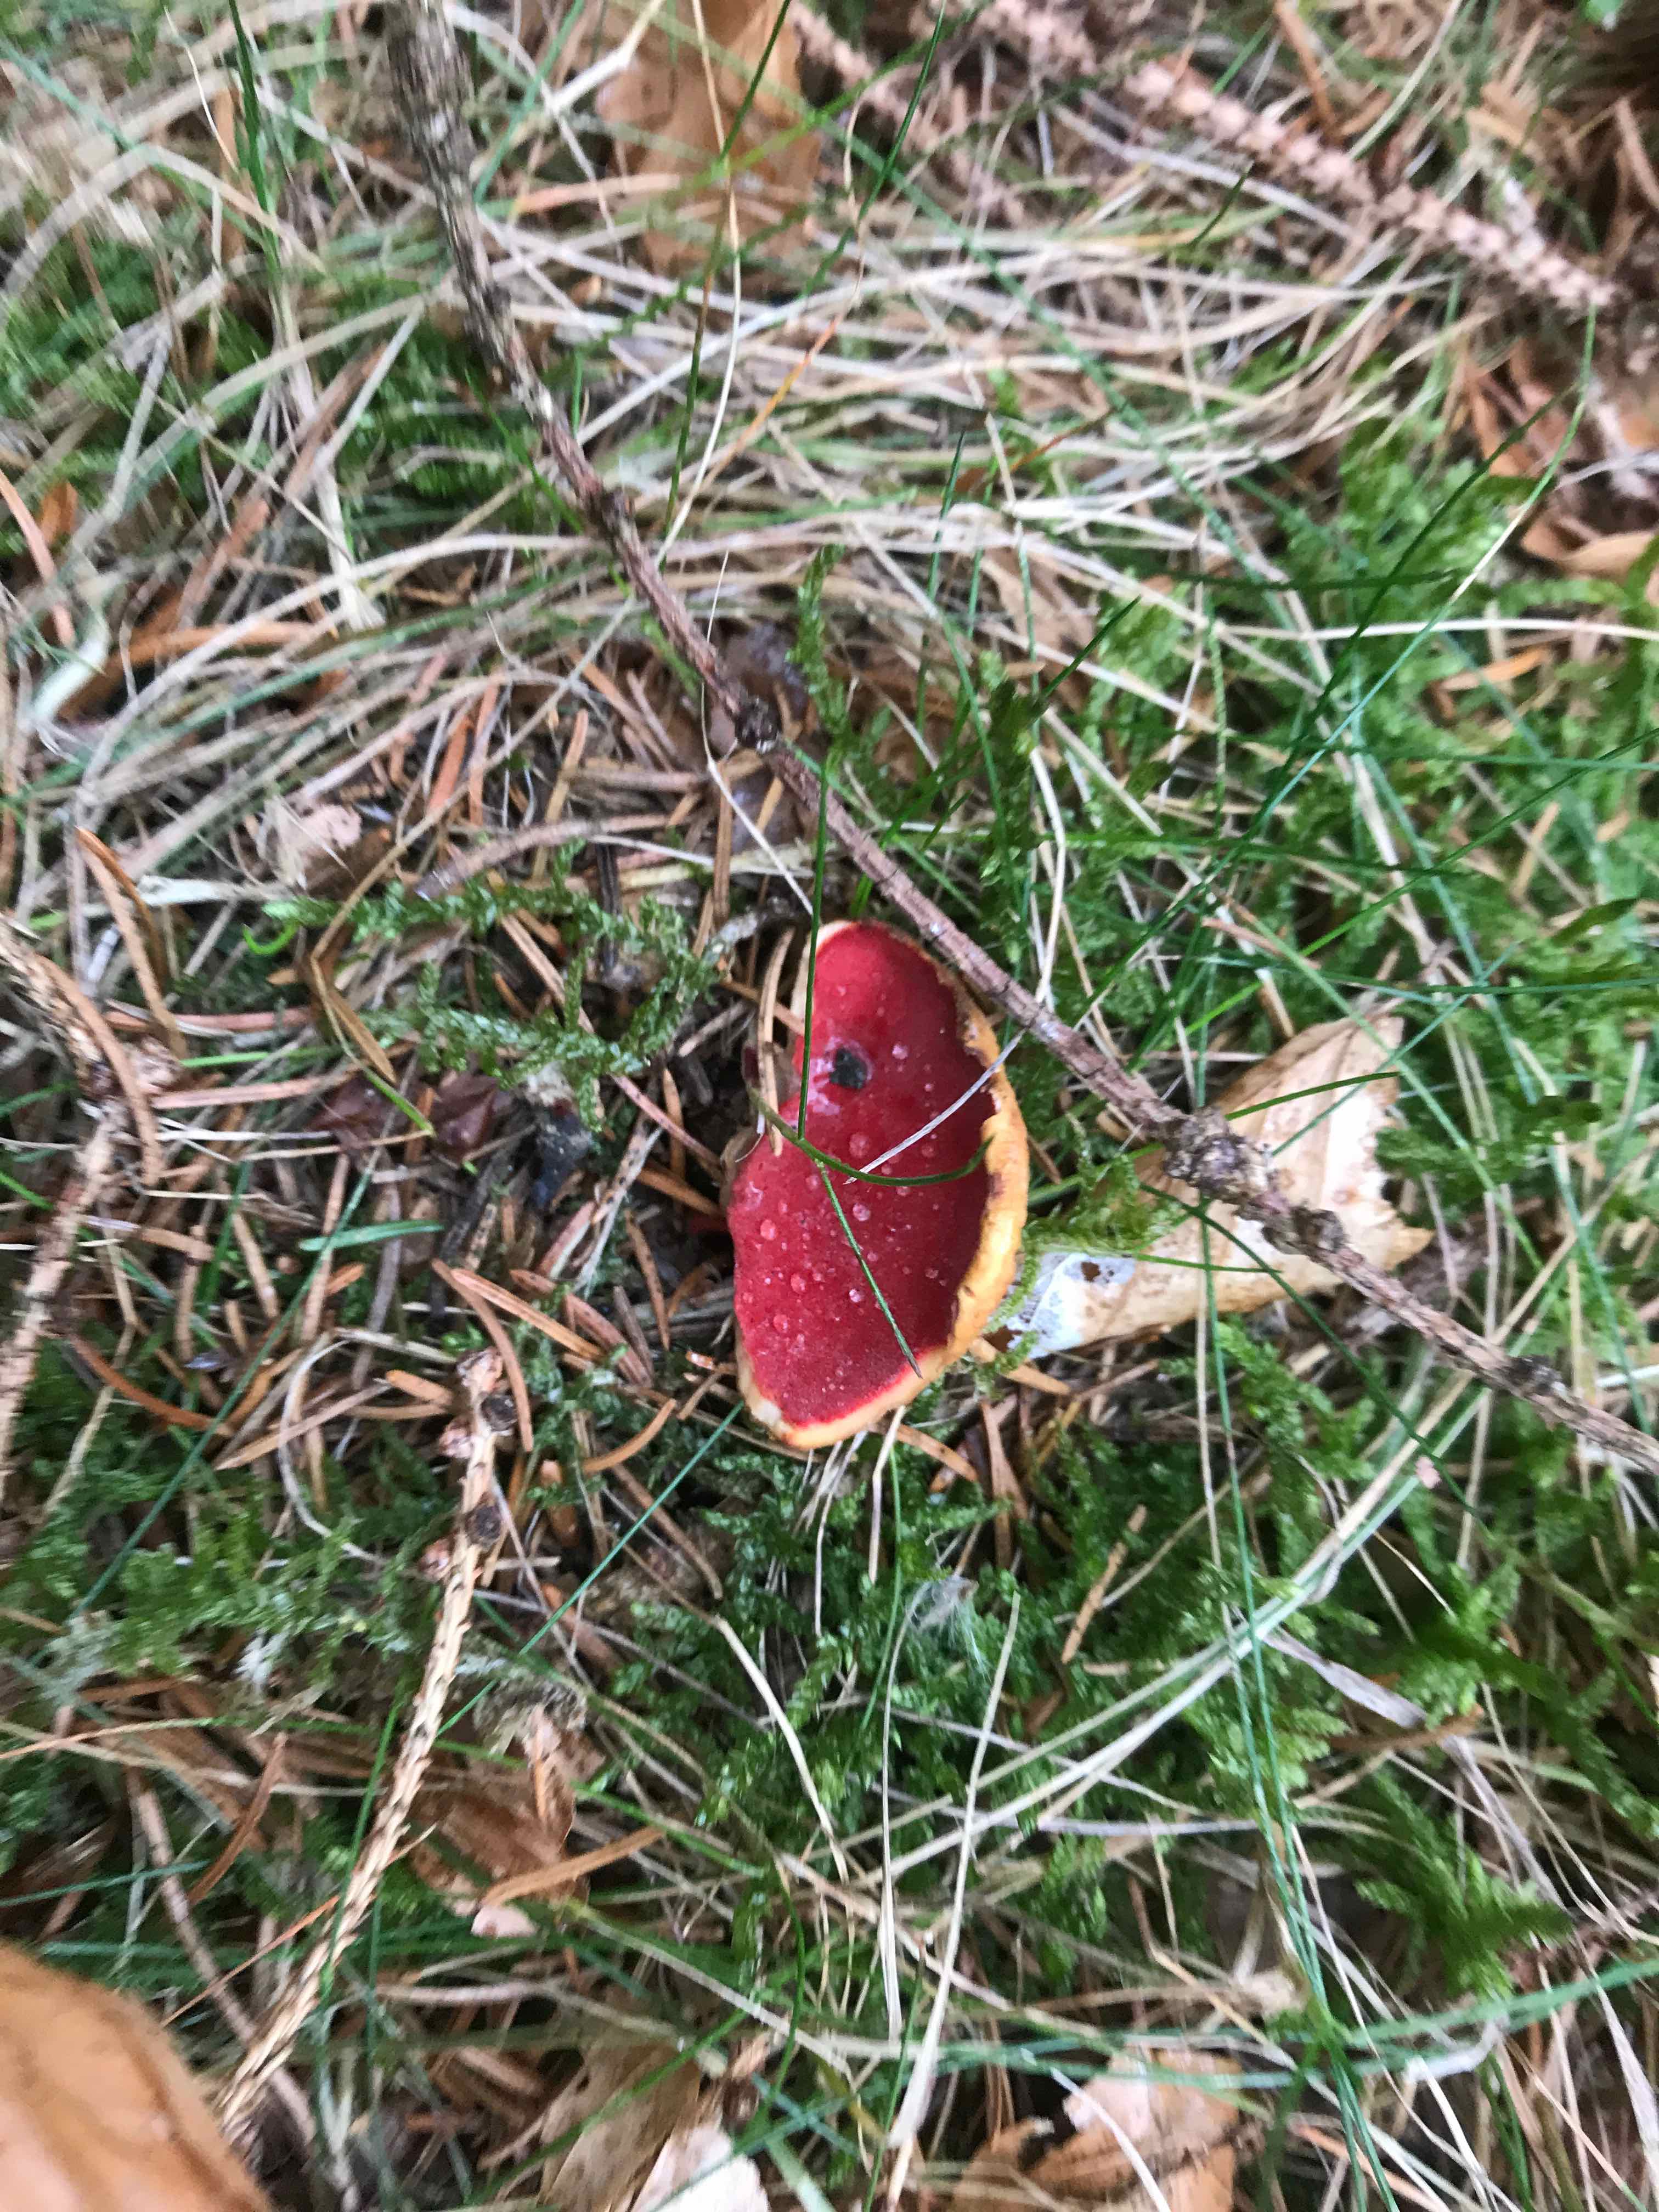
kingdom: Fungi
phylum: Ascomycota
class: Pezizomycetes
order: Pezizales
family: Sarcoscyphaceae
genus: Sarcoscypha
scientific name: Sarcoscypha austriaca
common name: krølhåret pragtbæger
